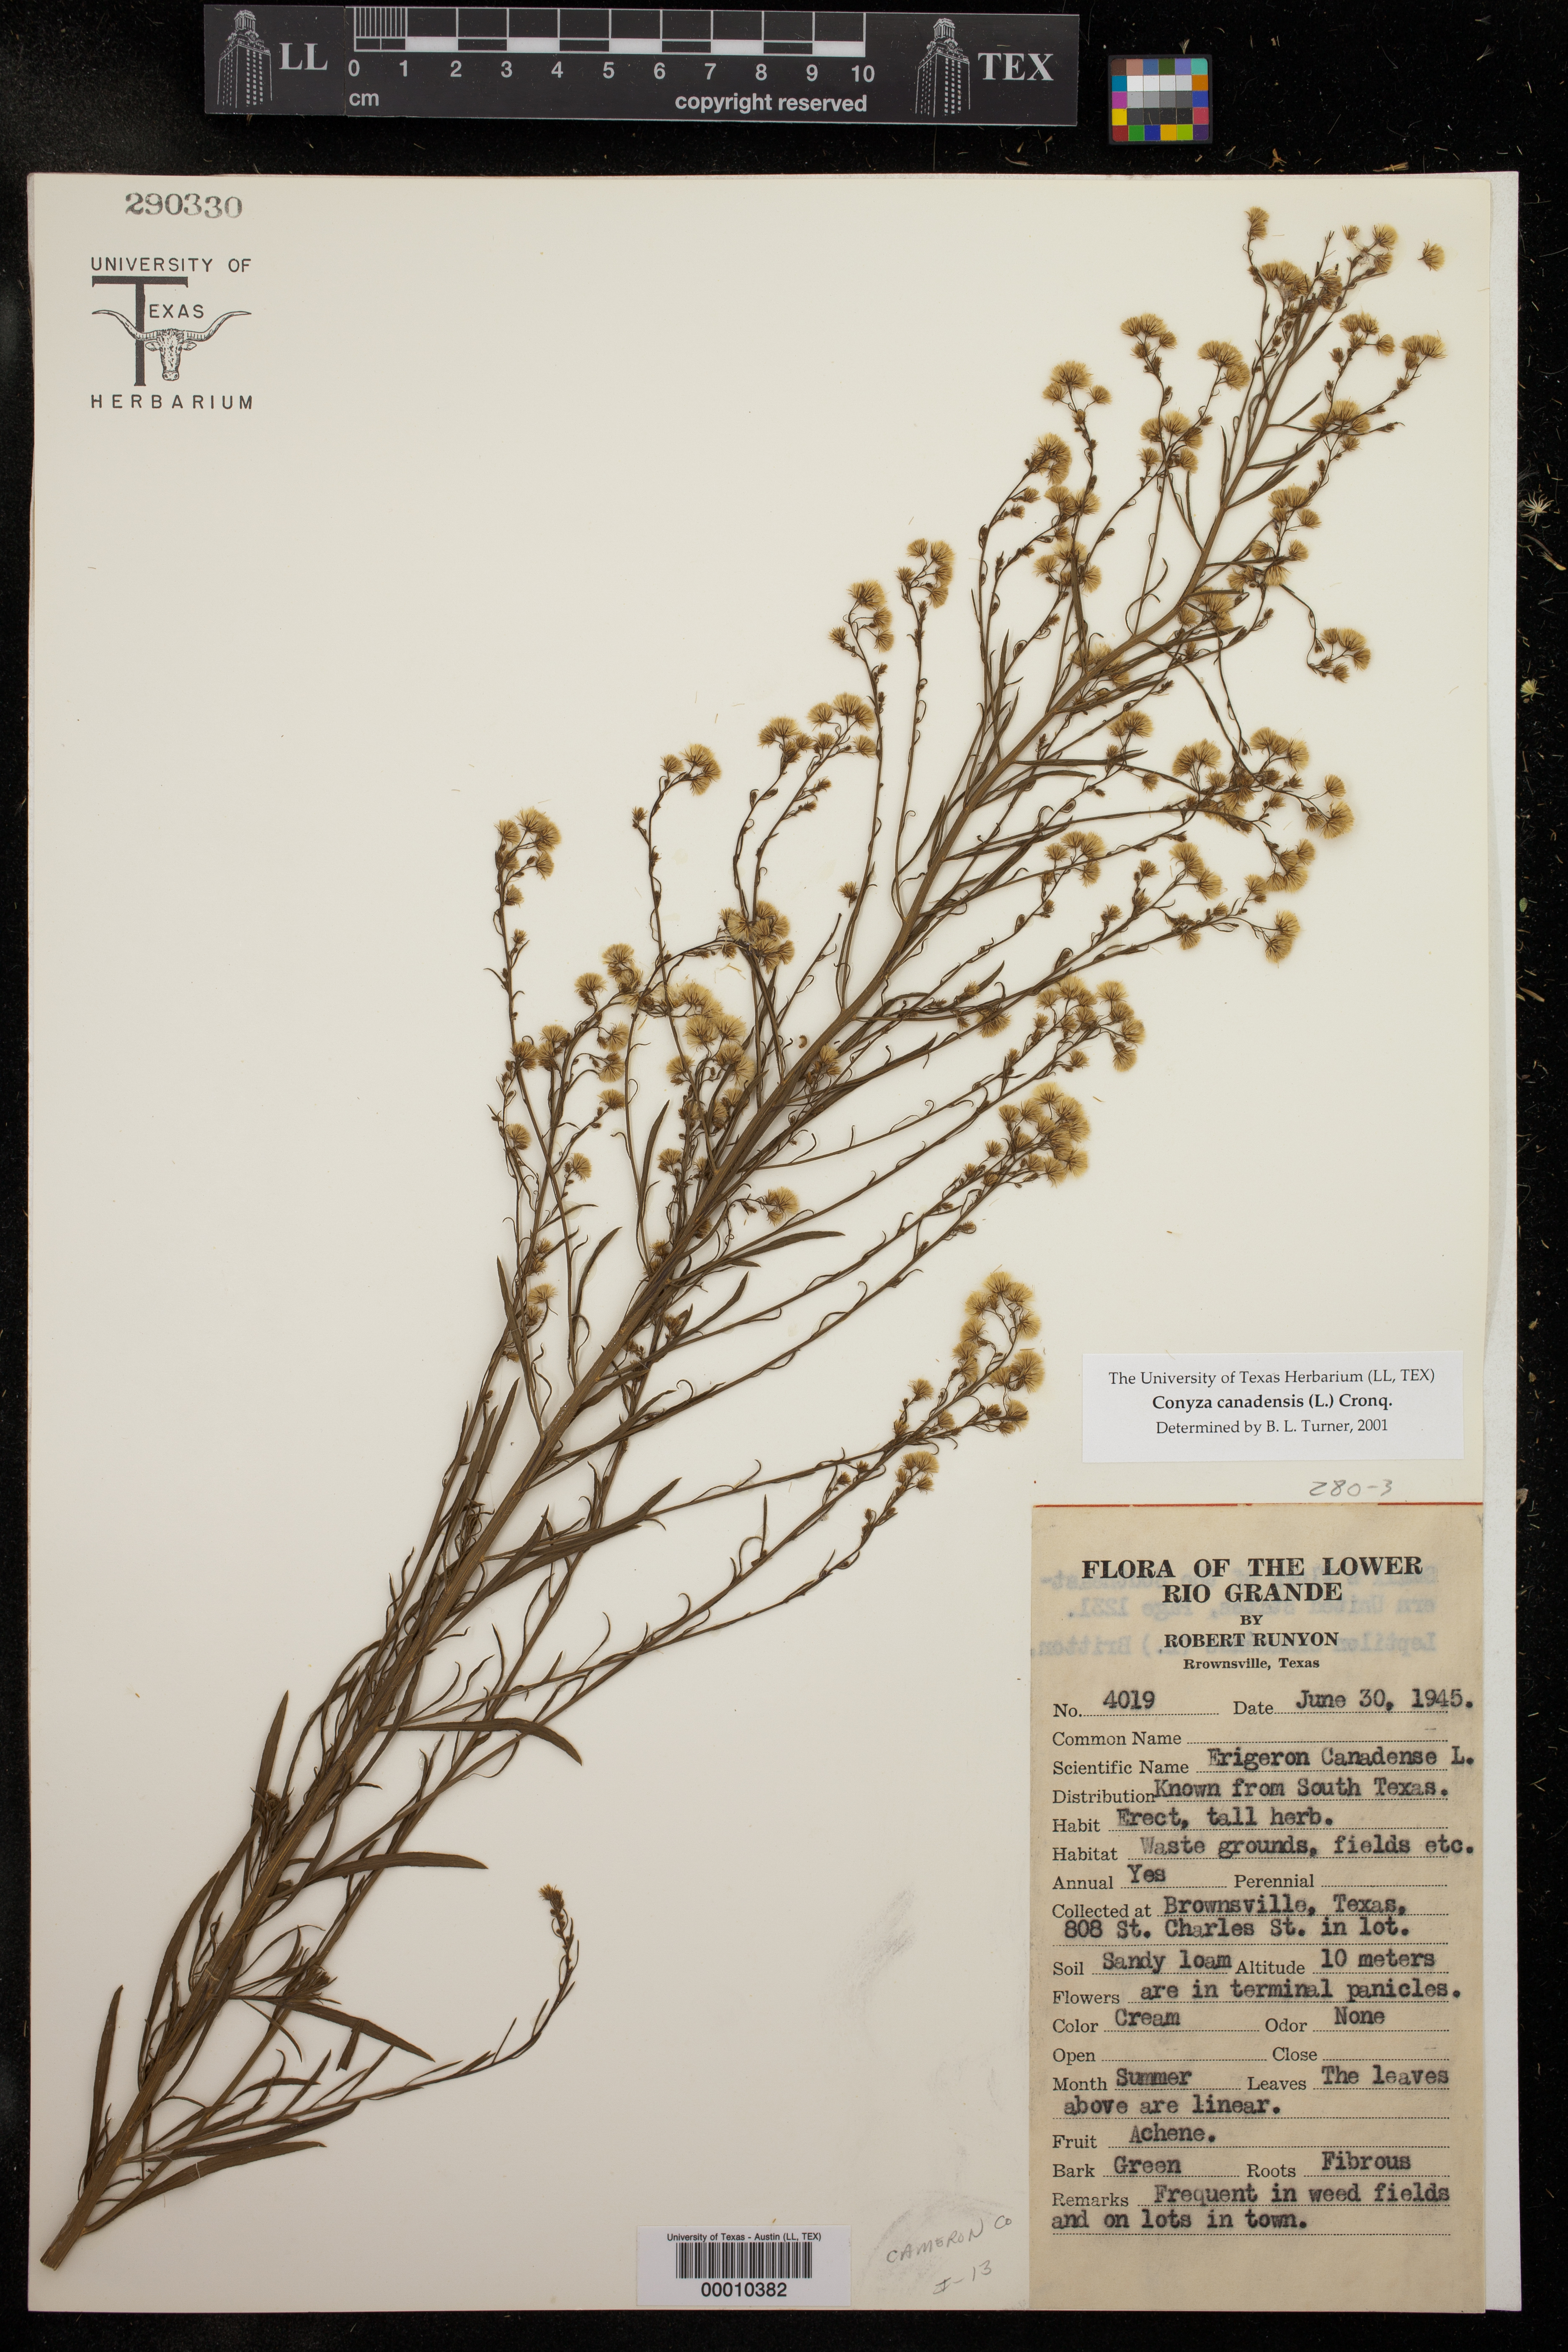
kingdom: Plantae
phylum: Tracheophyta
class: Magnoliopsida
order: Asterales
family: Asteraceae
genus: Erigeron
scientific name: Erigeron canadensis
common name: Canadian fleabane
